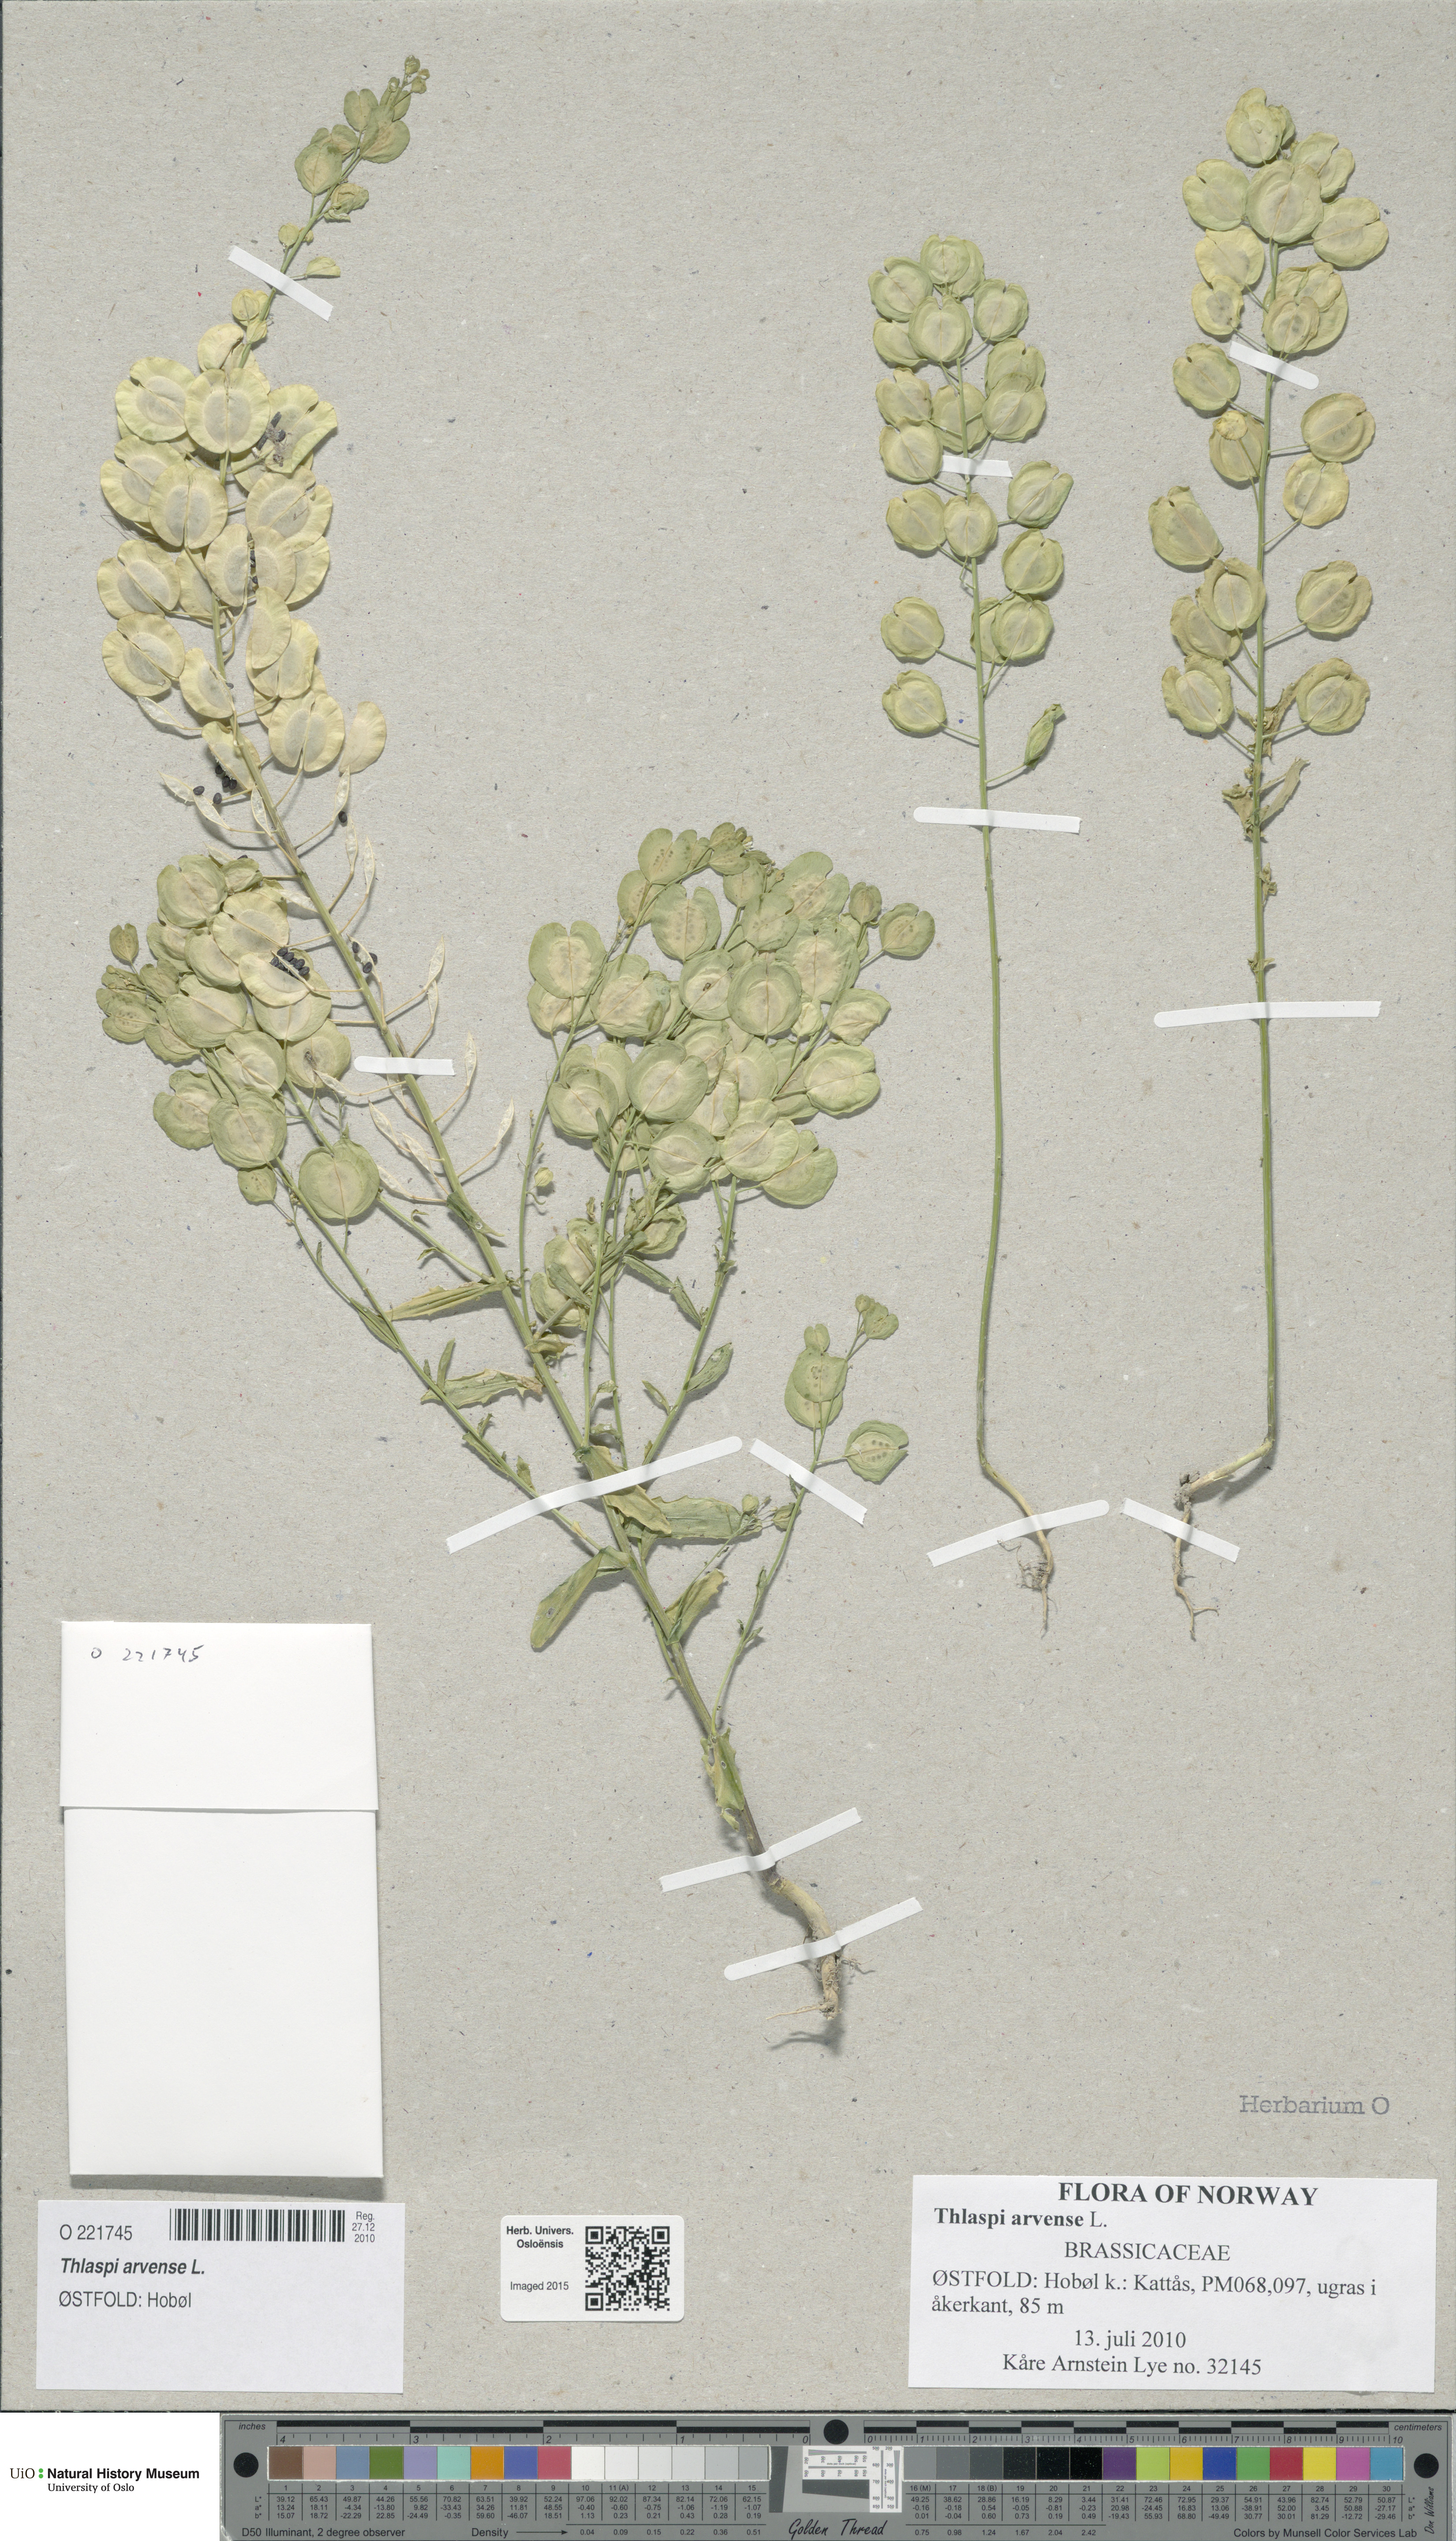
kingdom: Plantae
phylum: Tracheophyta
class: Magnoliopsida
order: Brassicales
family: Brassicaceae
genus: Thlaspi
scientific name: Thlaspi arvense
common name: Field pennycress
